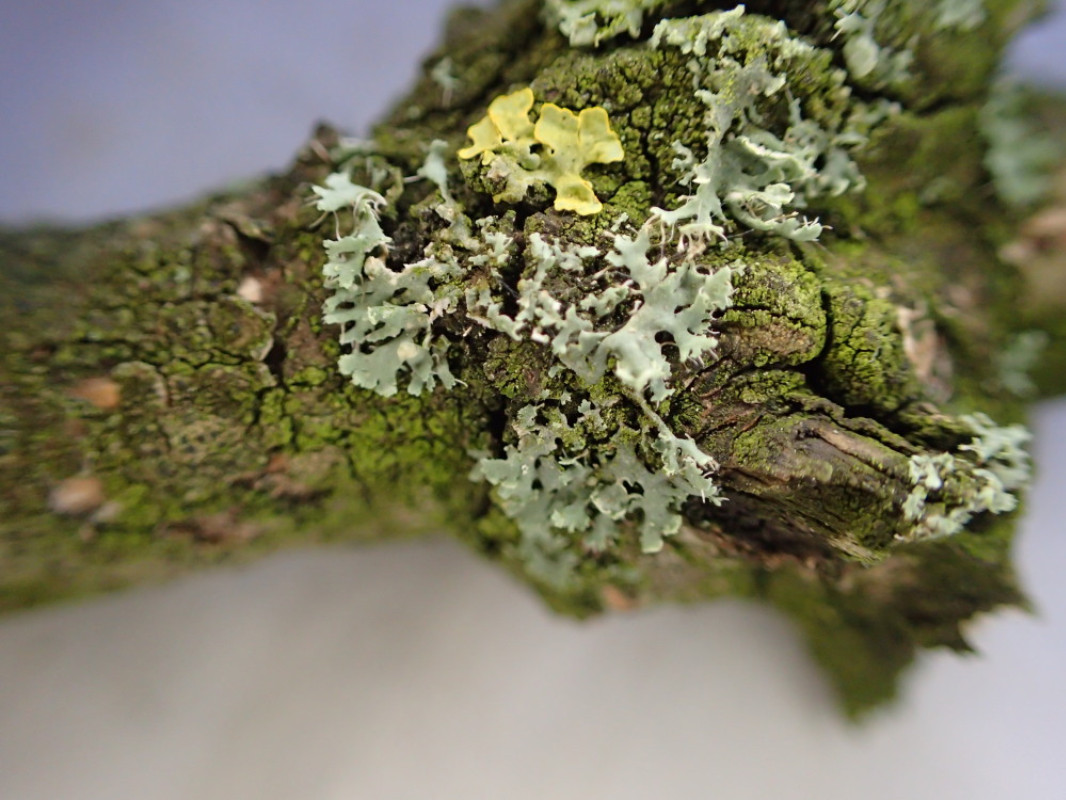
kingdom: Fungi
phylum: Ascomycota
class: Lecanoromycetes
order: Caliciales
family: Physciaceae
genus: Physcia
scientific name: Physcia tenella
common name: spæd rosetlav
